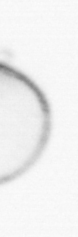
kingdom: Chromista
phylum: Myzozoa
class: Dinophyceae
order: Noctilucales
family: Noctilucaceae
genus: Noctiluca
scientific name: Noctiluca scintillans
